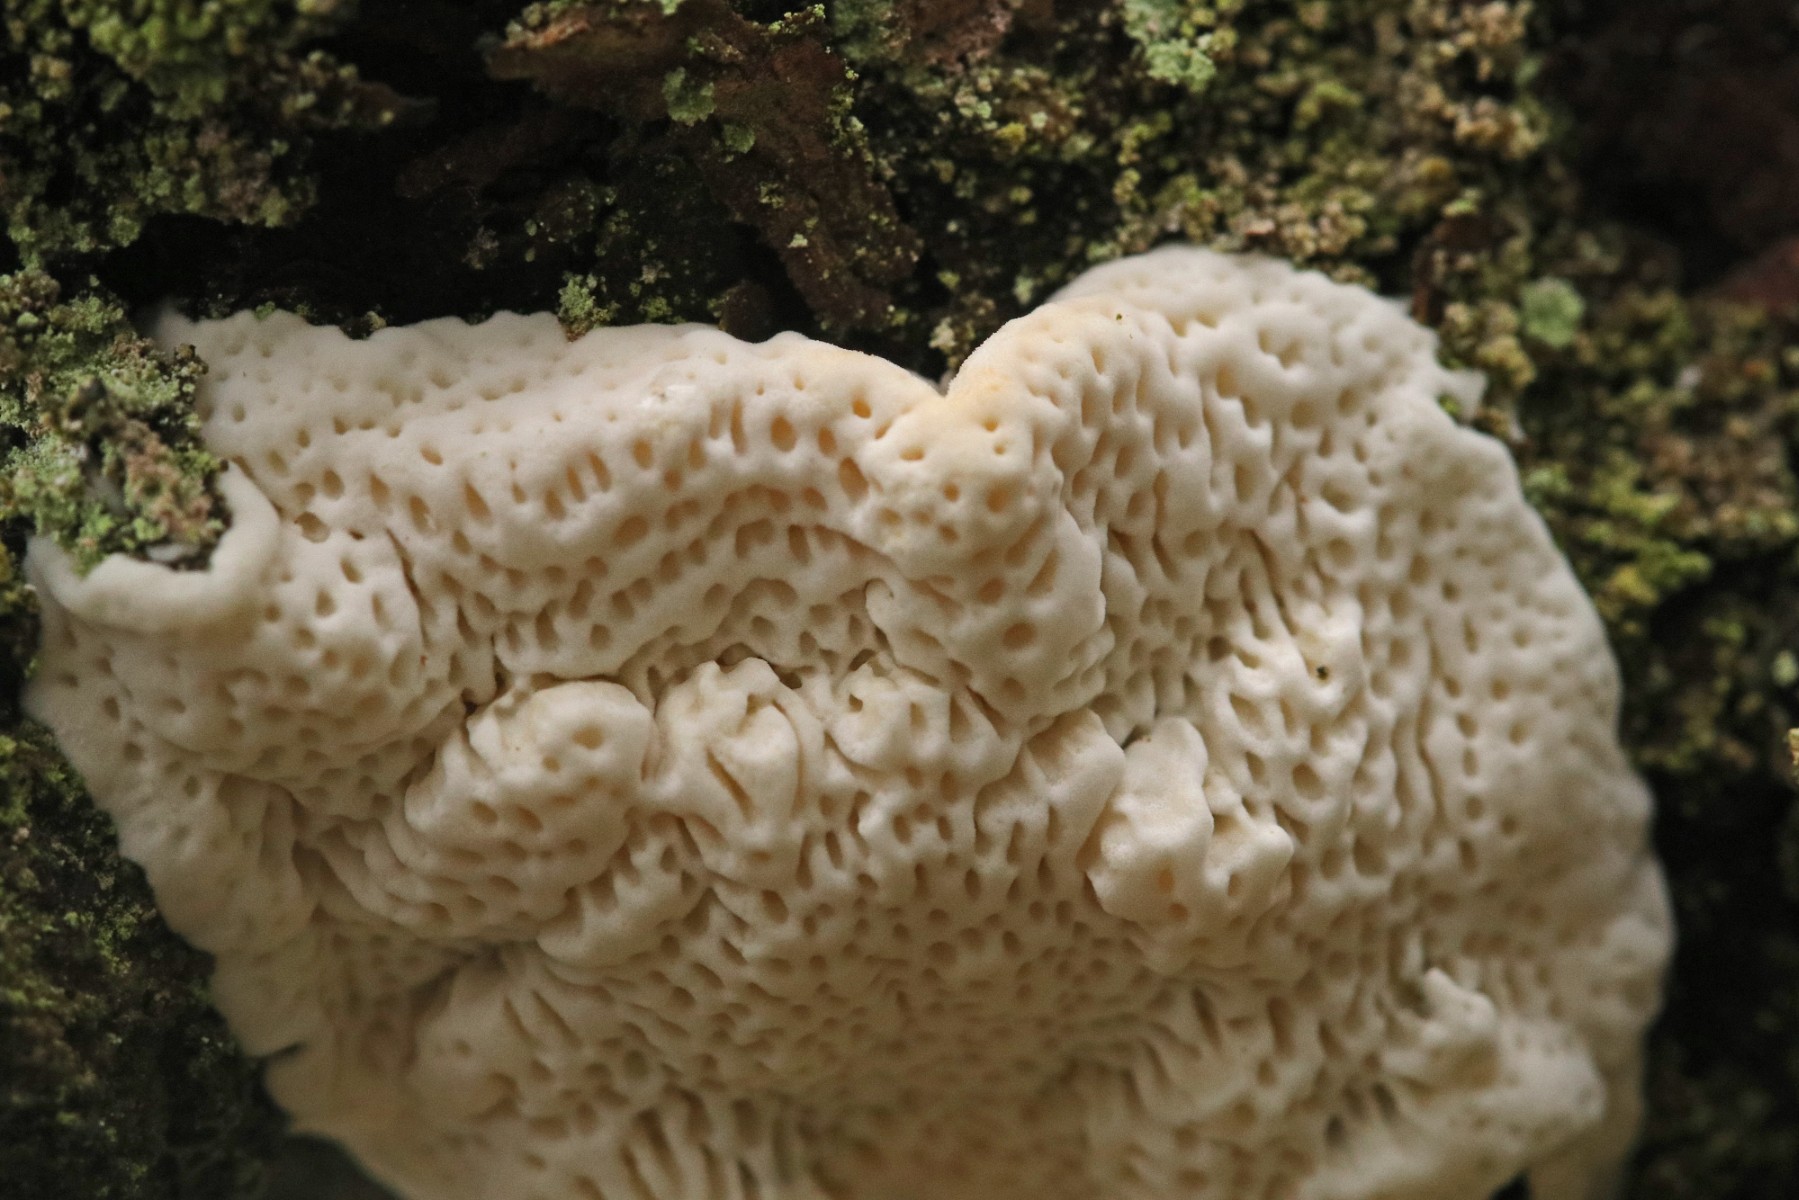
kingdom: Fungi
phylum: Basidiomycota
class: Agaricomycetes
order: Polyporales
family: Fomitopsidaceae
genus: Fomitopsis
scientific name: Fomitopsis
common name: fyrre-skiveporesvamp
